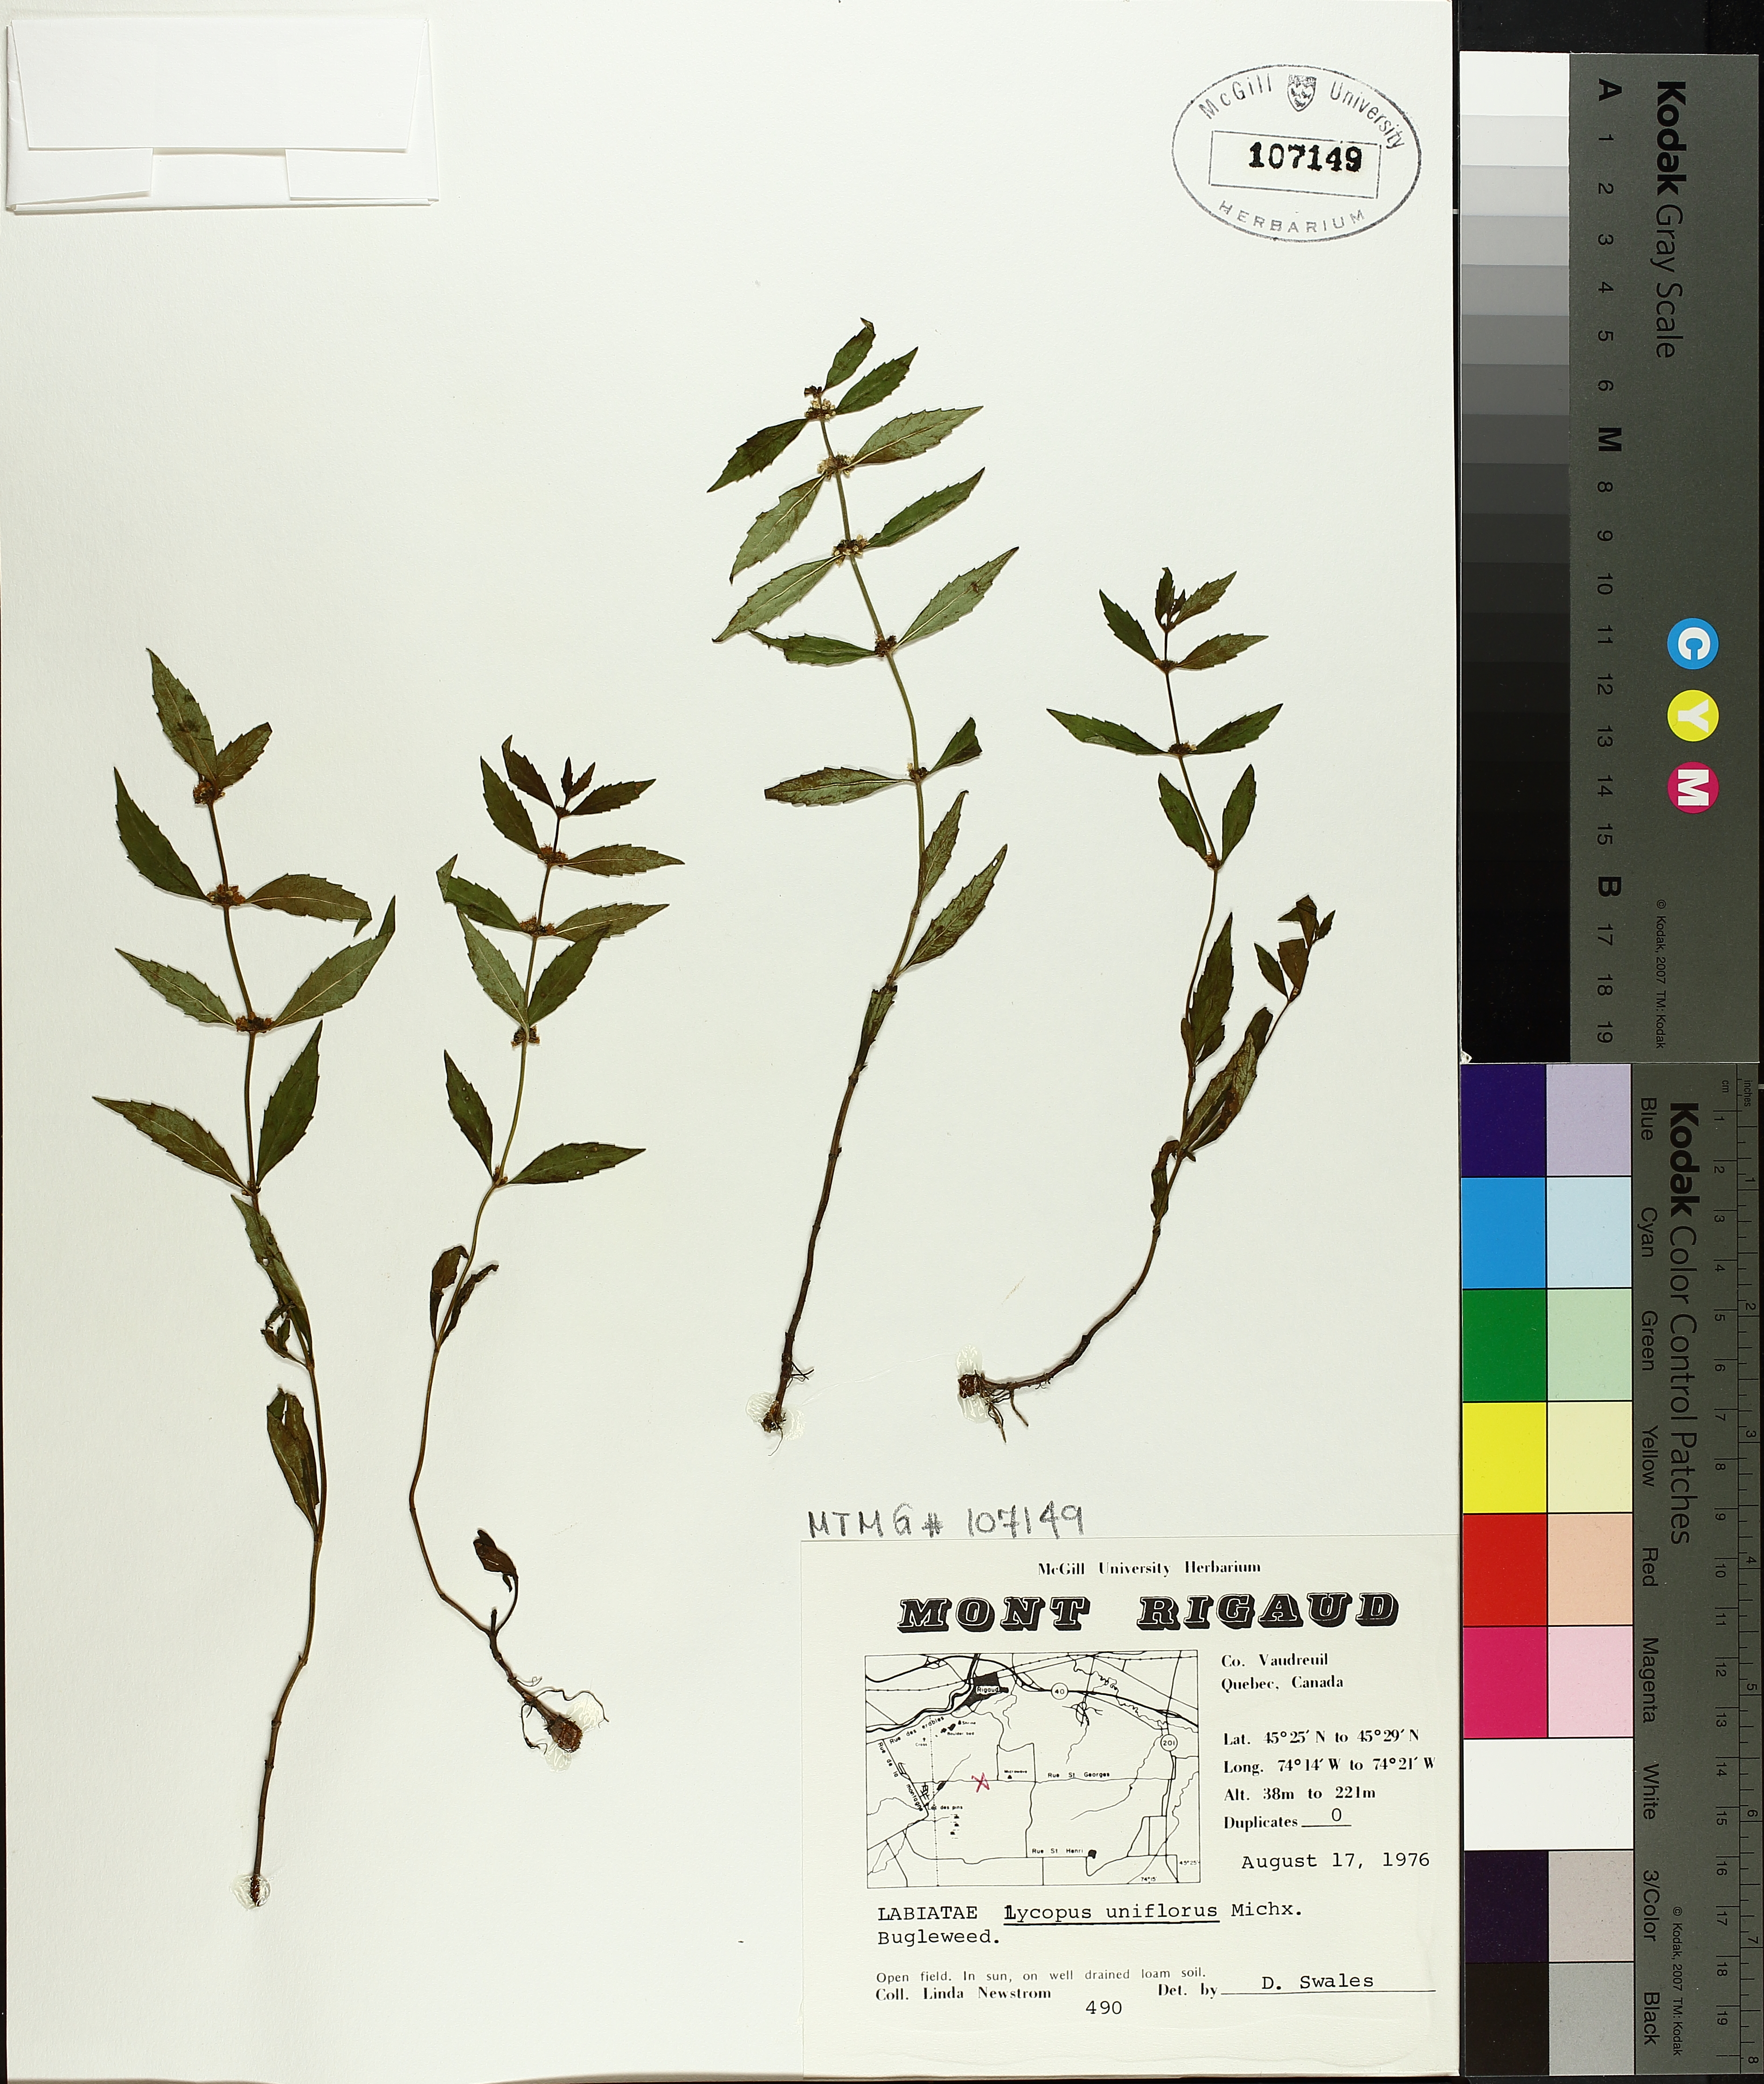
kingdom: Plantae
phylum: Tracheophyta
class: Magnoliopsida
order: Lamiales
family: Lamiaceae
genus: Lycopus
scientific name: Lycopus uniflorus
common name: Northern bugleweed
